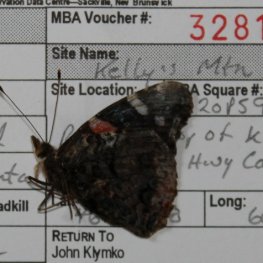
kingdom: Animalia
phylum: Arthropoda
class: Insecta
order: Lepidoptera
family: Nymphalidae
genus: Vanessa
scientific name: Vanessa atalanta
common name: Red Admiral
